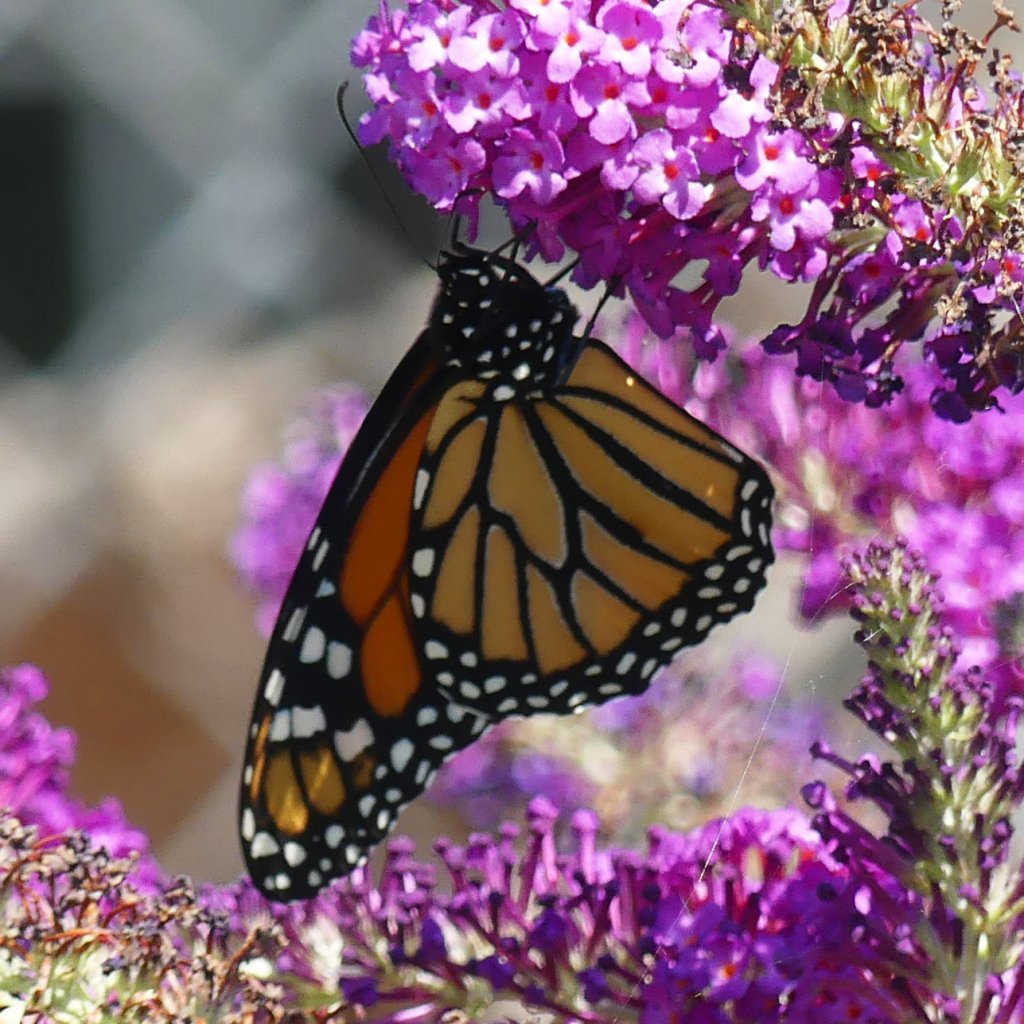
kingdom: Animalia
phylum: Arthropoda
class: Insecta
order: Lepidoptera
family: Nymphalidae
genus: Danaus
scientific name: Danaus plexippus
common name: Monarch
